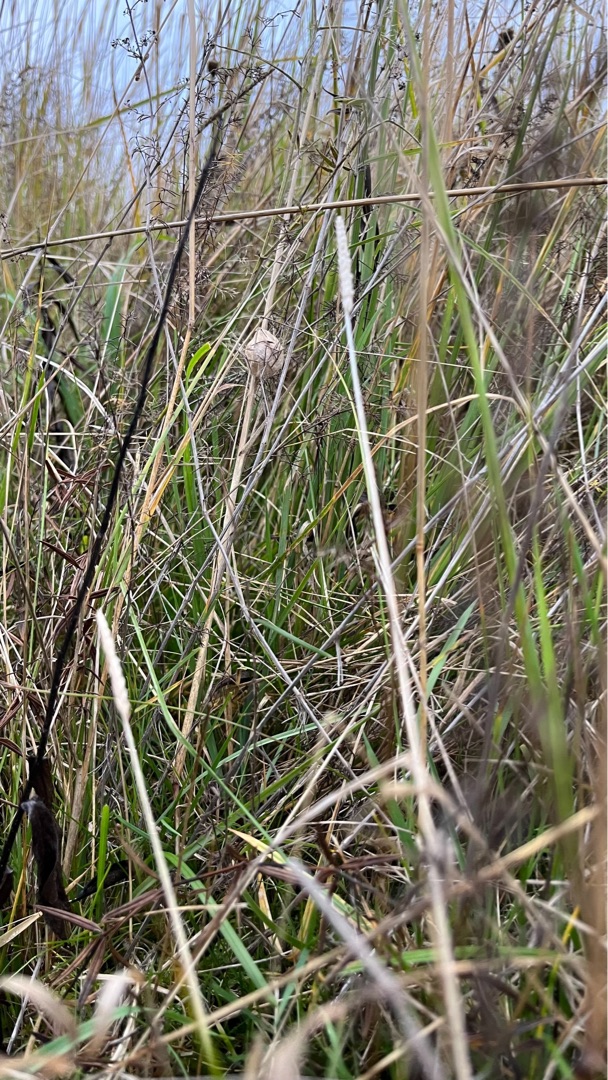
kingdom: Animalia
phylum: Arthropoda
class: Arachnida
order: Araneae
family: Araneidae
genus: Argiope
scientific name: Argiope bruennichi
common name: Hvepseedderkop
